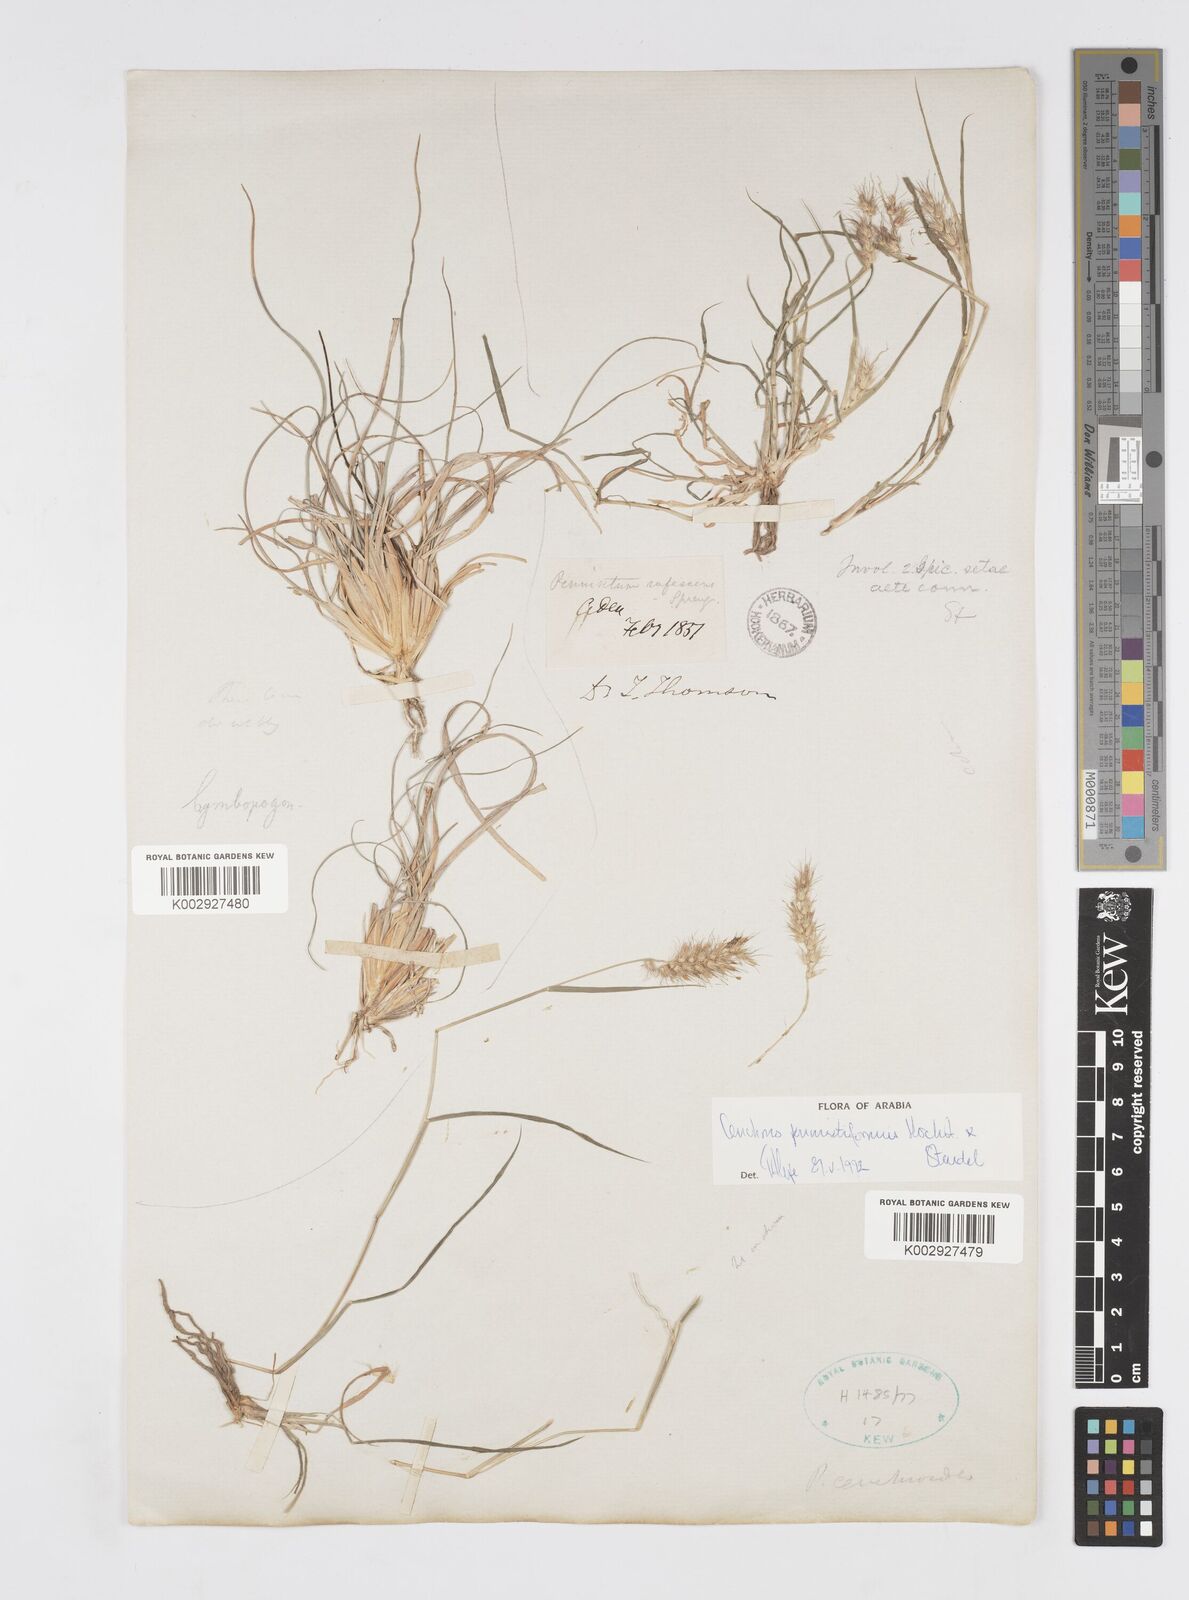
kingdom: Plantae
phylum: Tracheophyta
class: Liliopsida
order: Poales
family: Poaceae
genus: Cenchrus
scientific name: Cenchrus pennisetiformis
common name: Cloncurry
